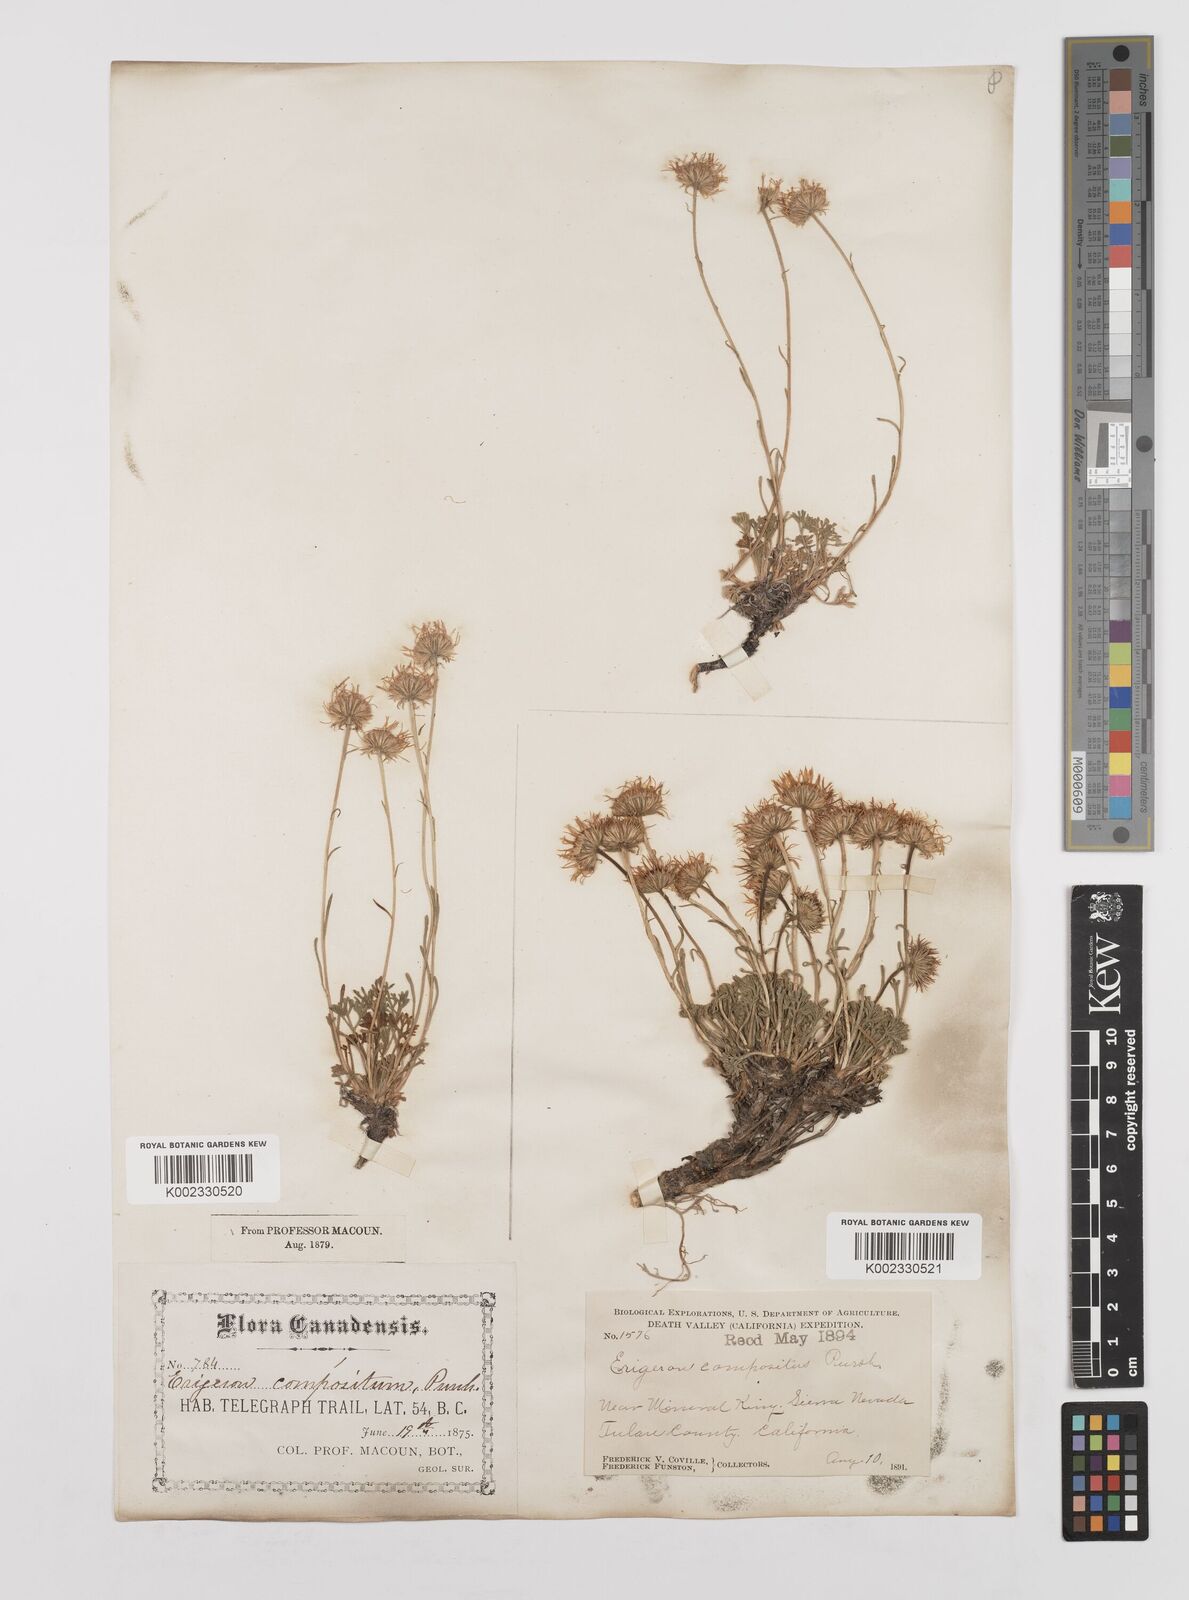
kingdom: Plantae
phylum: Tracheophyta
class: Magnoliopsida
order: Asterales
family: Asteraceae
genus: Erigeron
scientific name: Erigeron compositus
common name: Dwarf mountain fleabane
